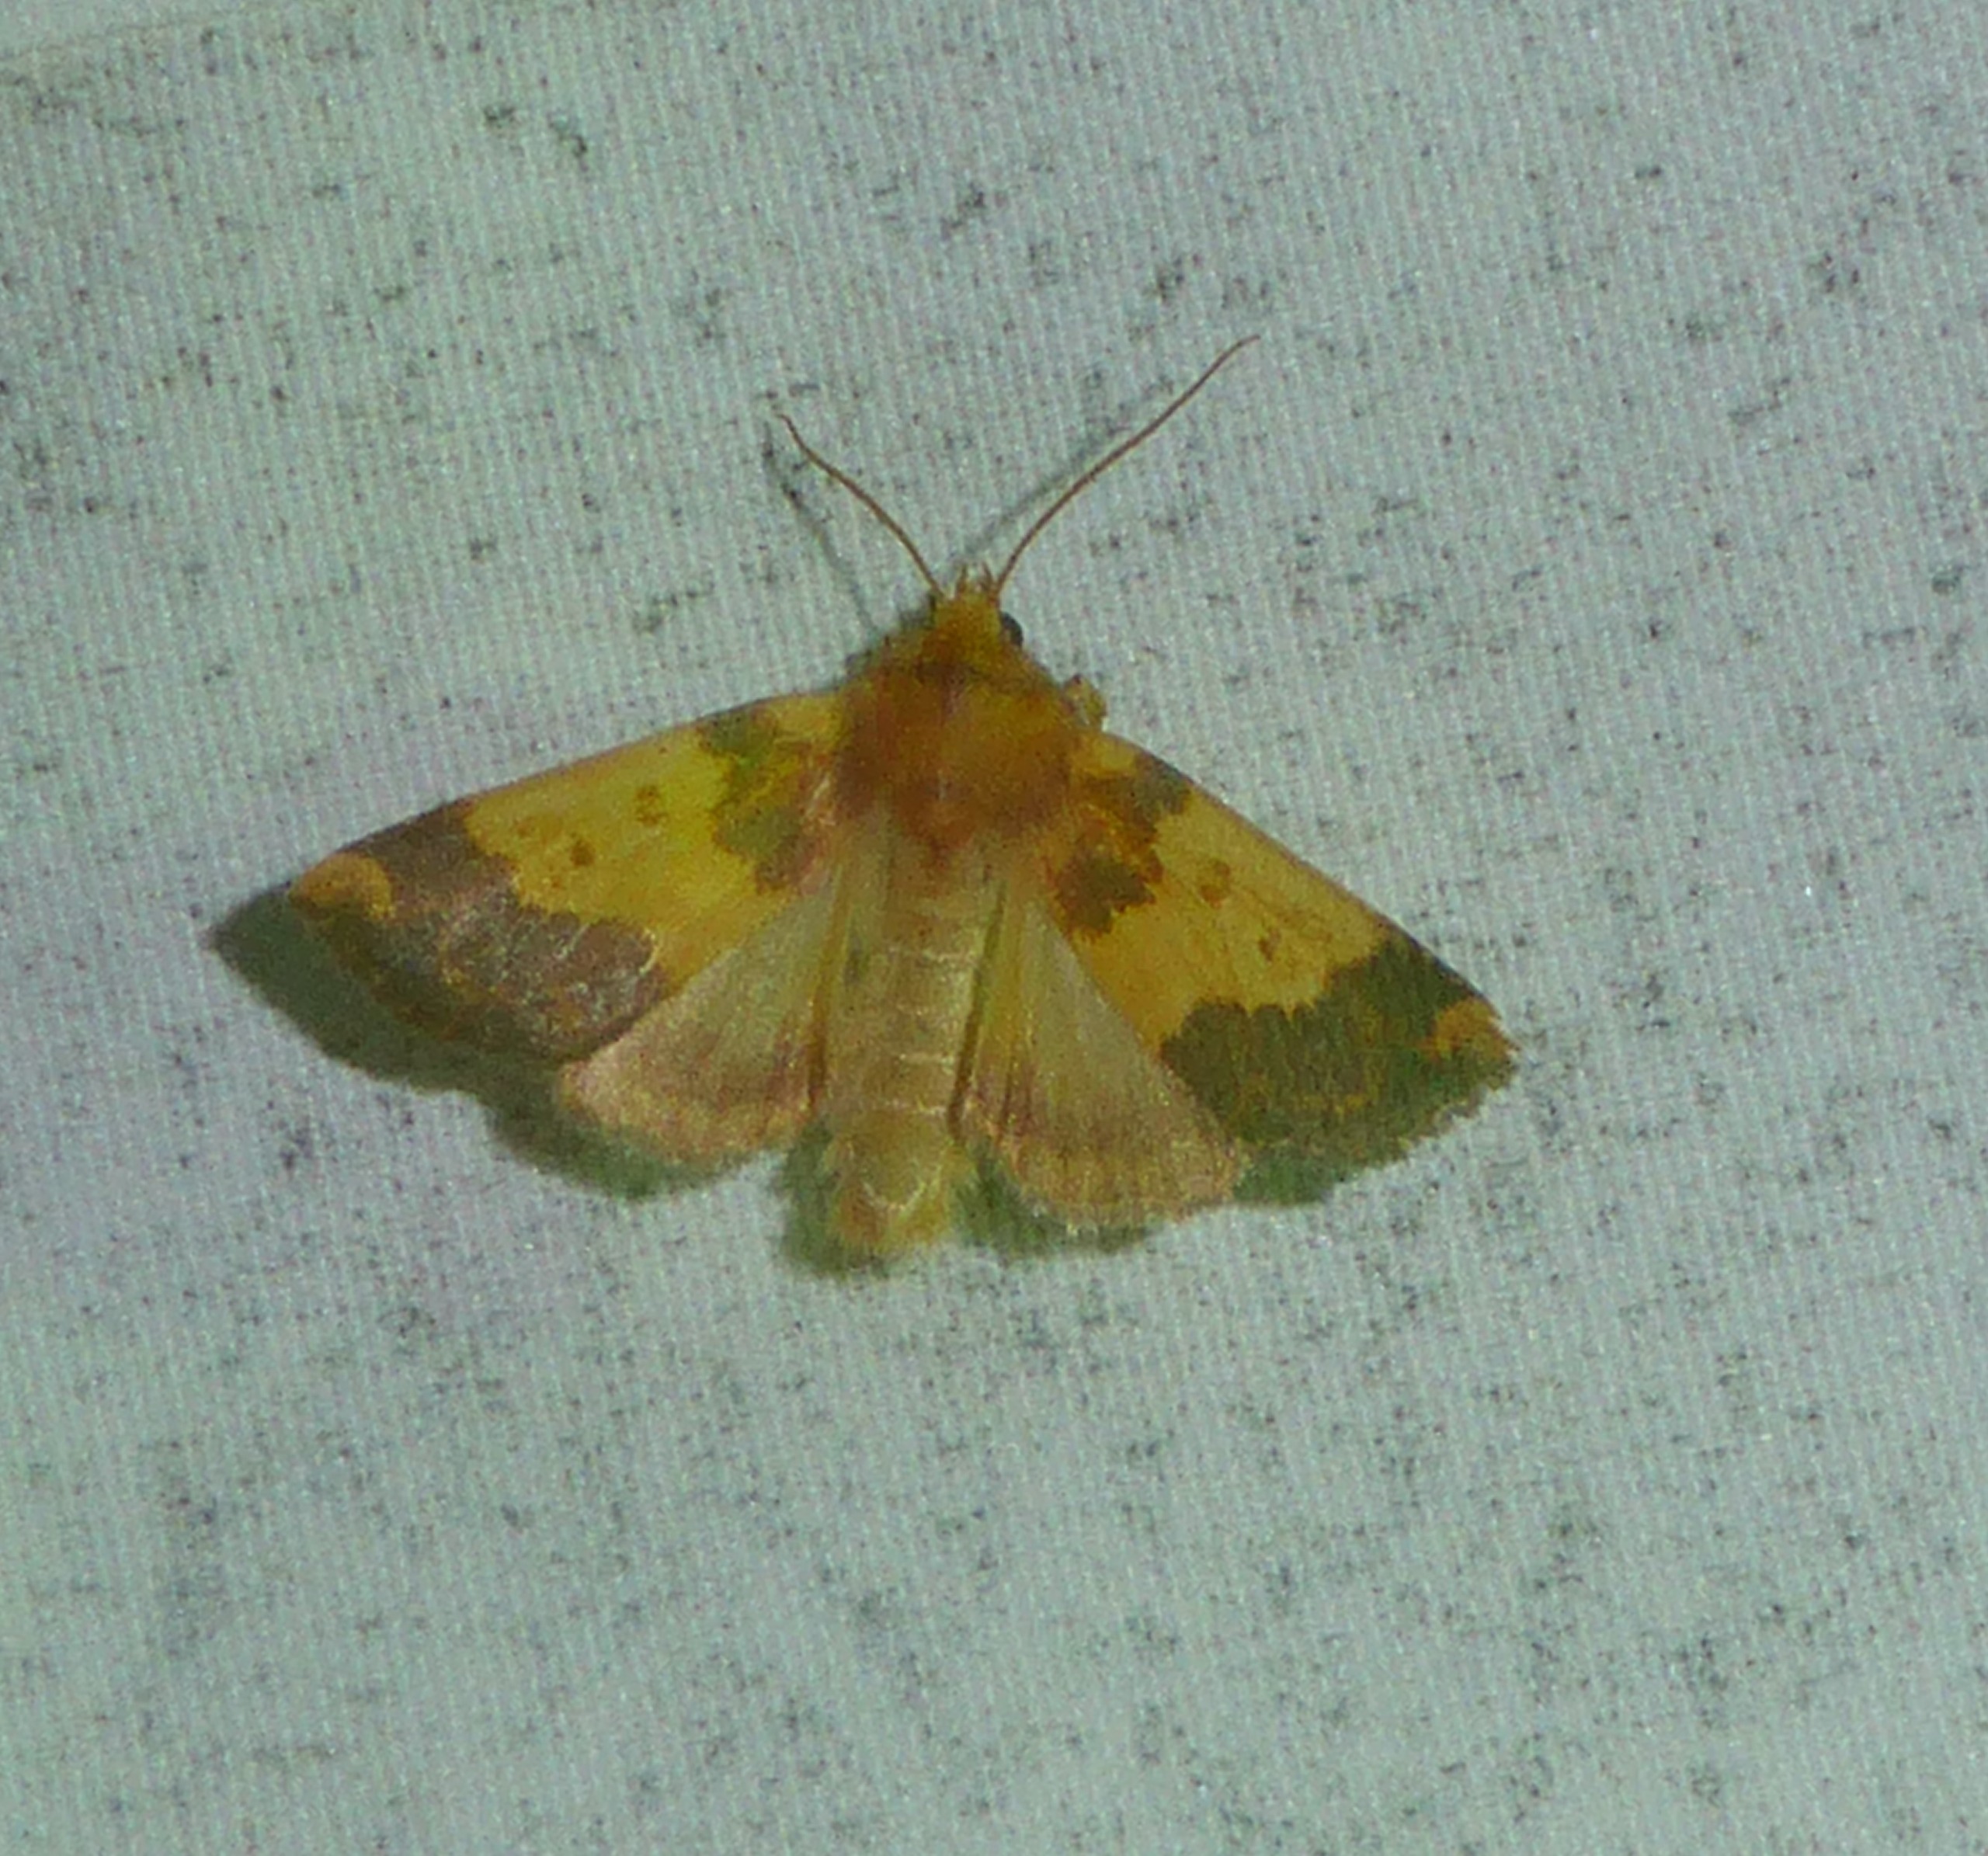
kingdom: Animalia
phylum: Arthropoda
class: Insecta
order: Lepidoptera
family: Noctuidae
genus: Tiliacea
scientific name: Tiliacea aurago
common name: Guldugle
